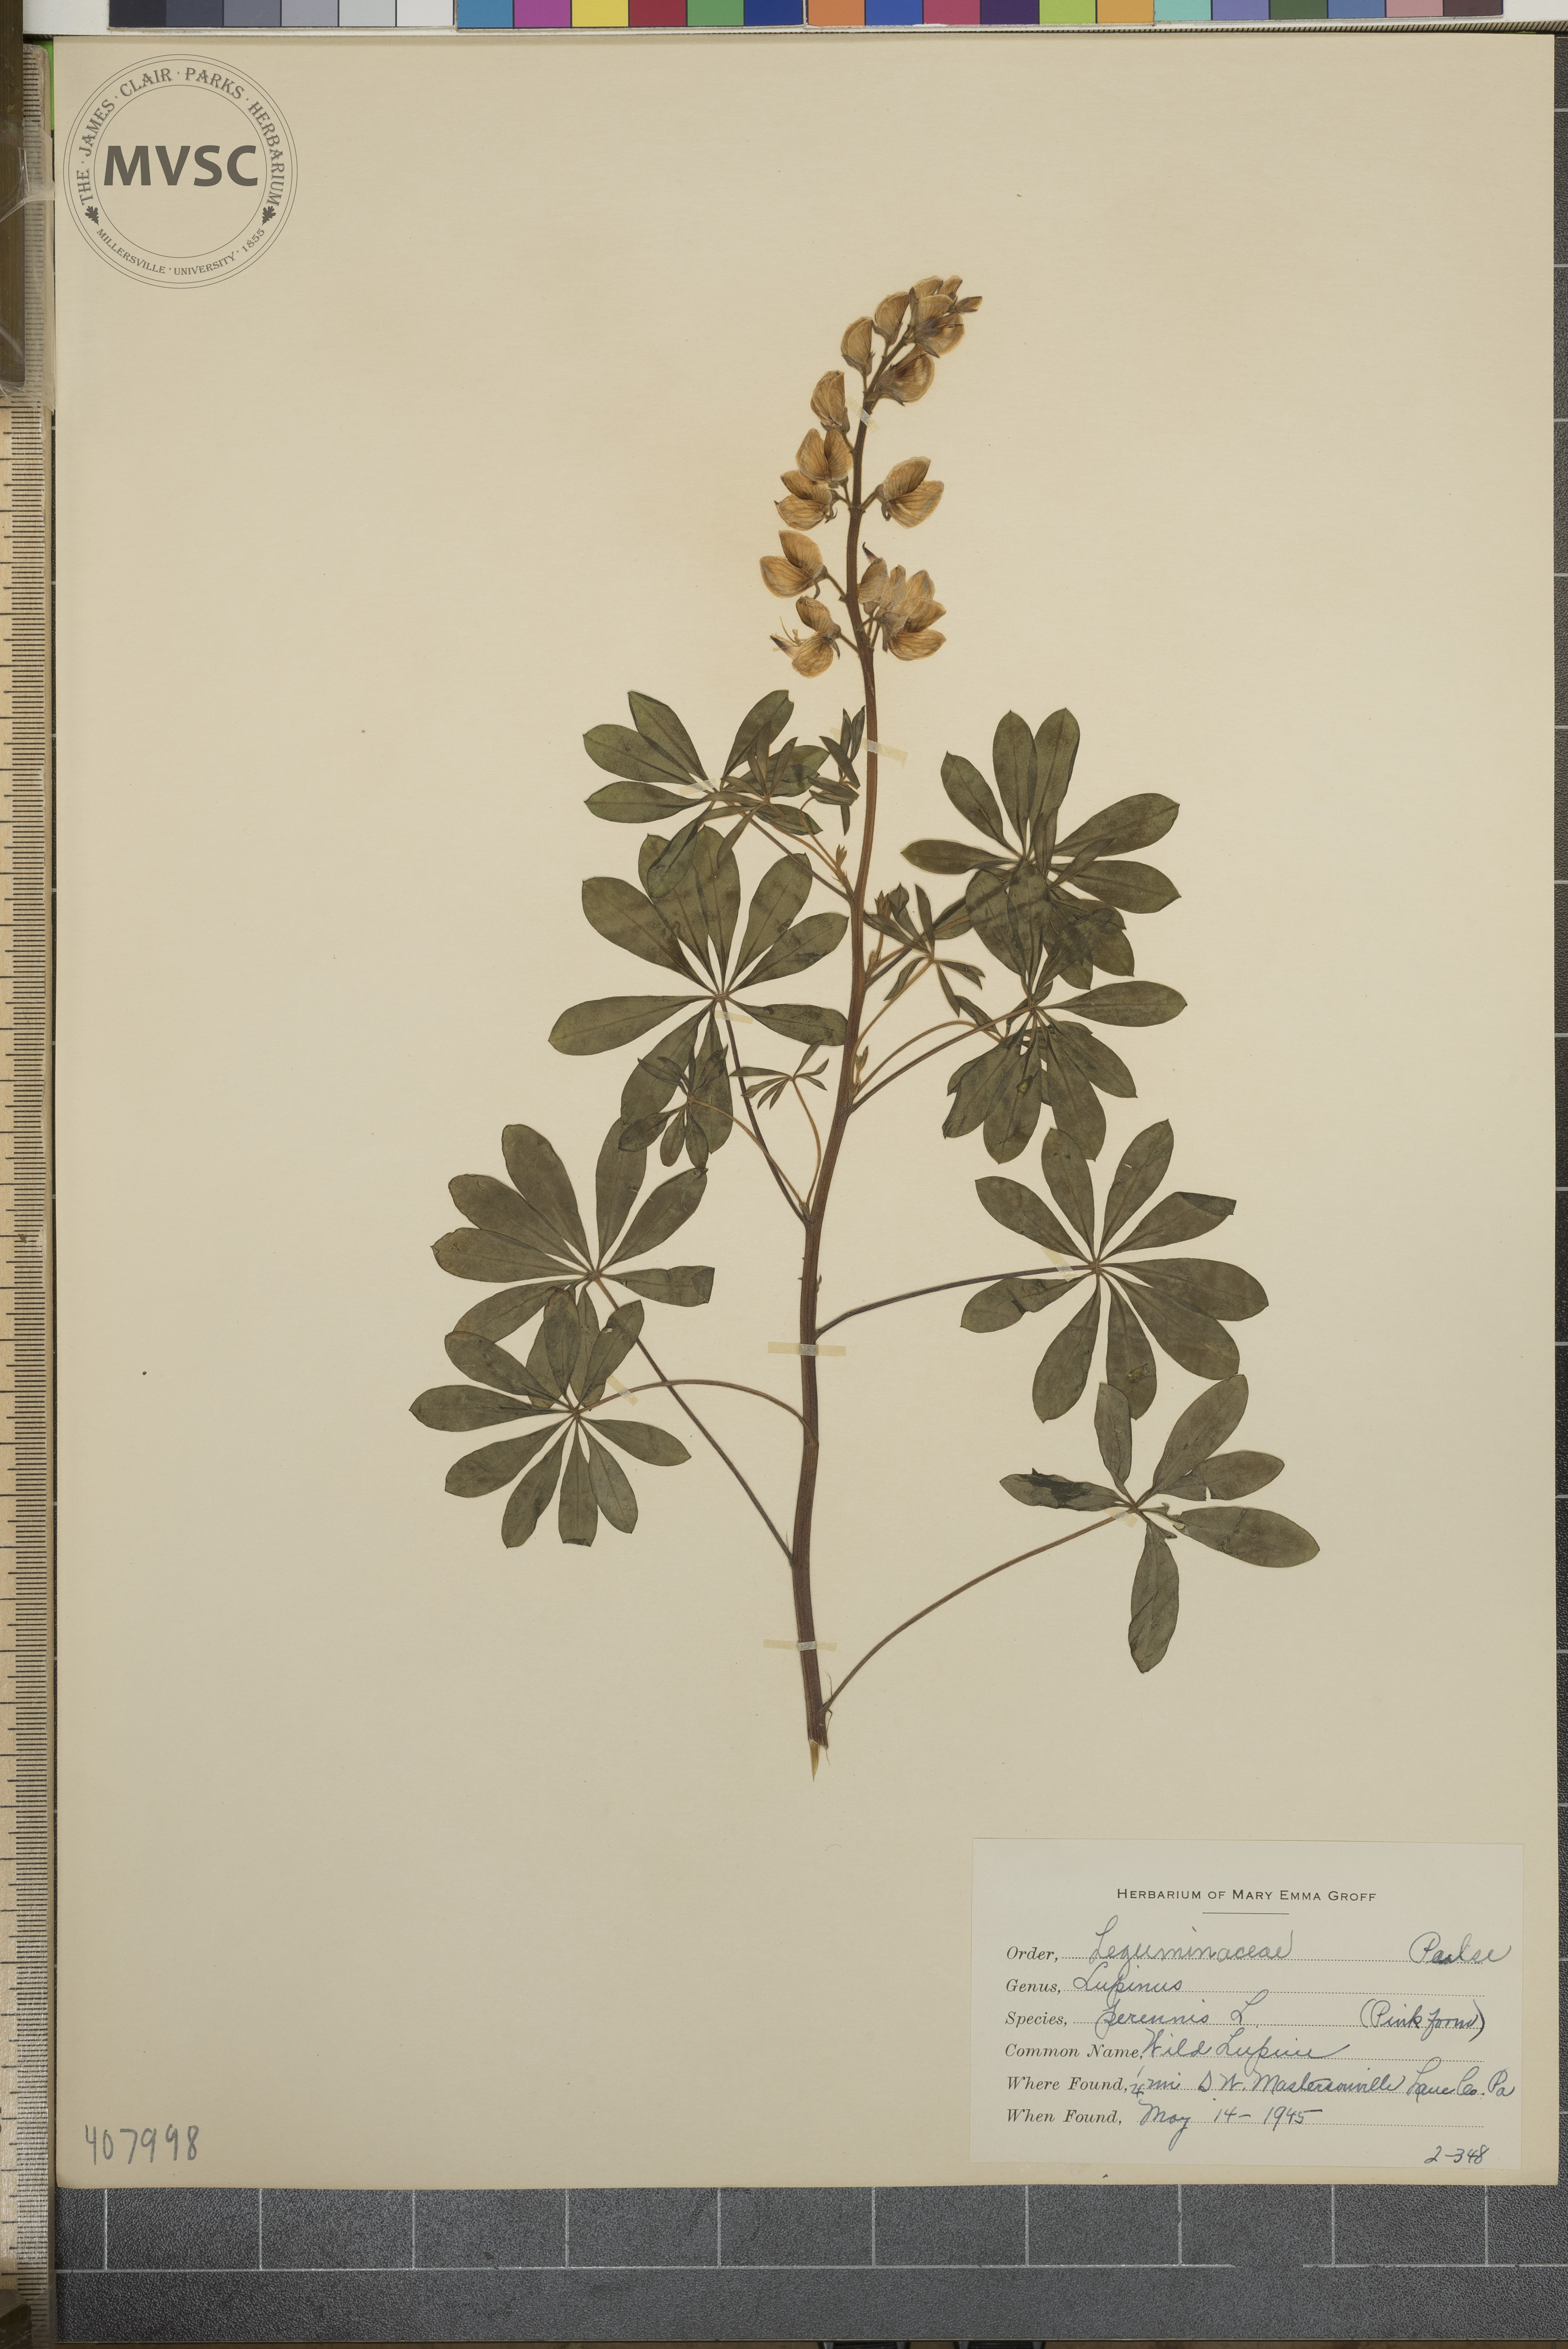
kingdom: Plantae
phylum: Tracheophyta
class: Magnoliopsida
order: Fabales
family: Fabaceae
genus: Lupinus
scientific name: Lupinus perennis
